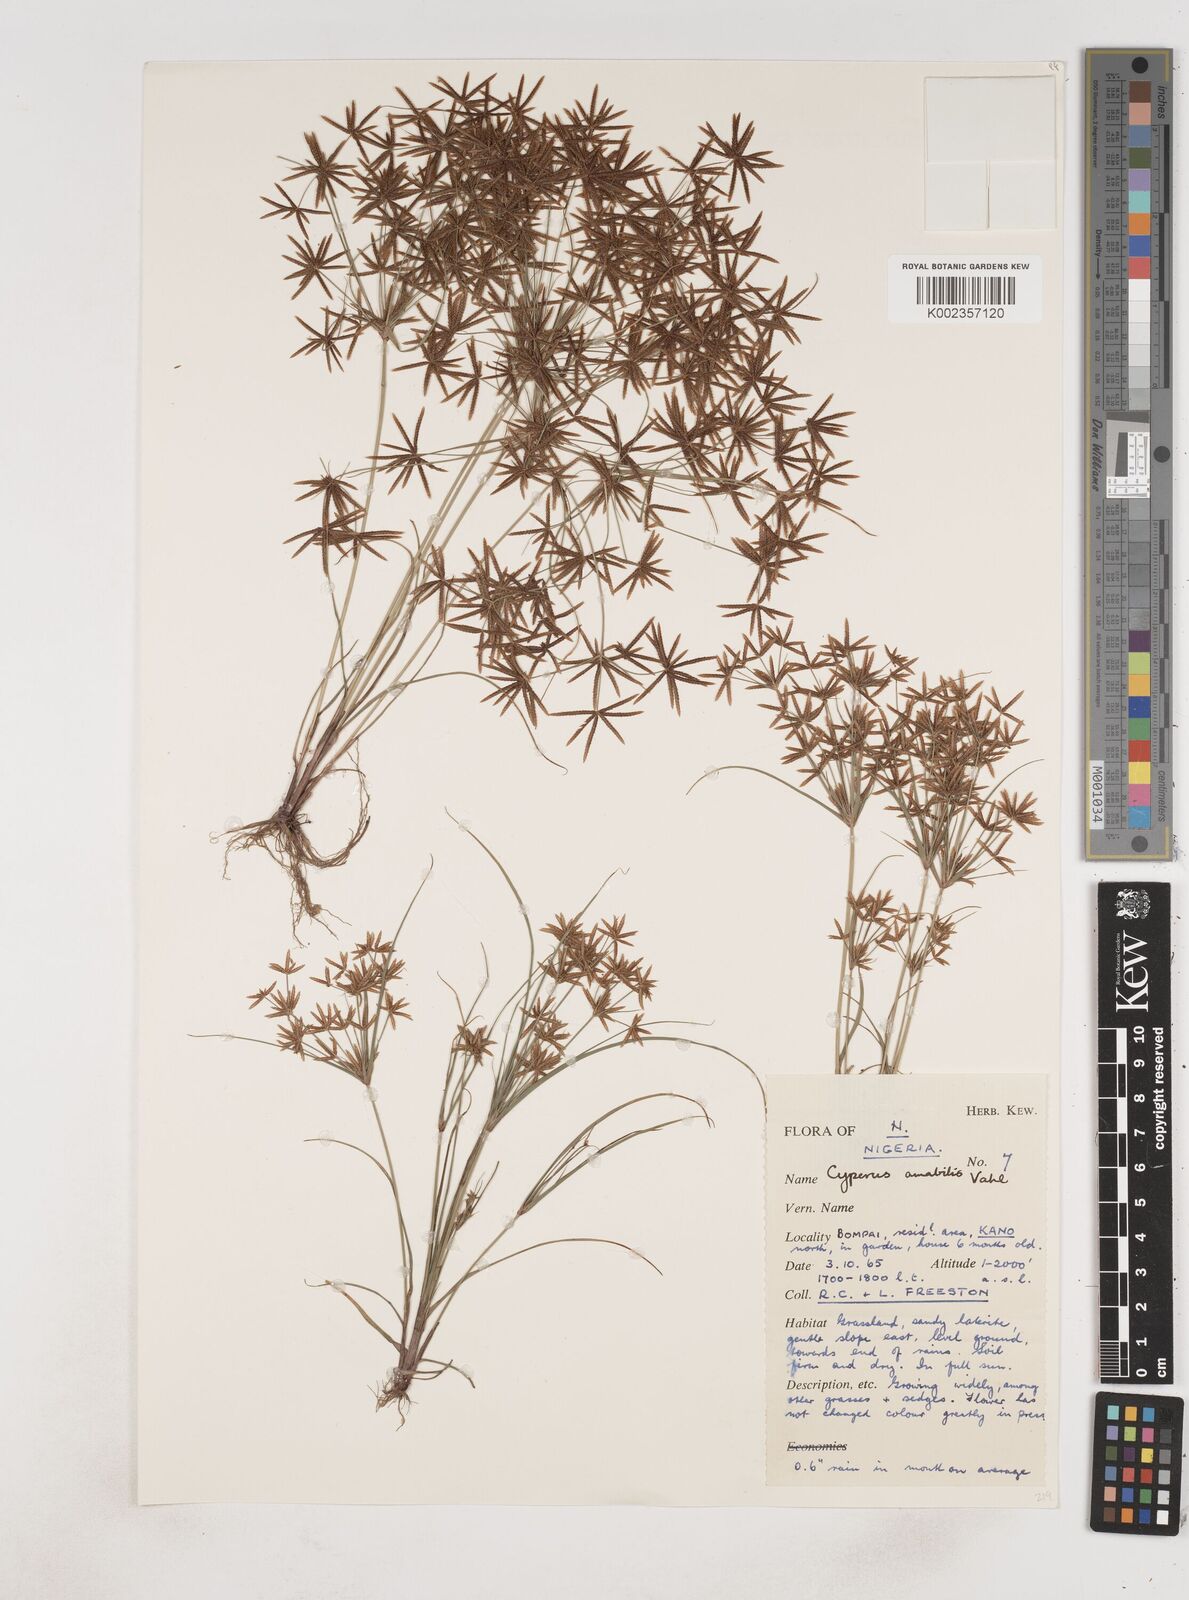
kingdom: Plantae
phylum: Tracheophyta
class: Liliopsida
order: Poales
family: Cyperaceae
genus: Cyperus
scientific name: Cyperus amabilis
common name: Foothill flat sedge
